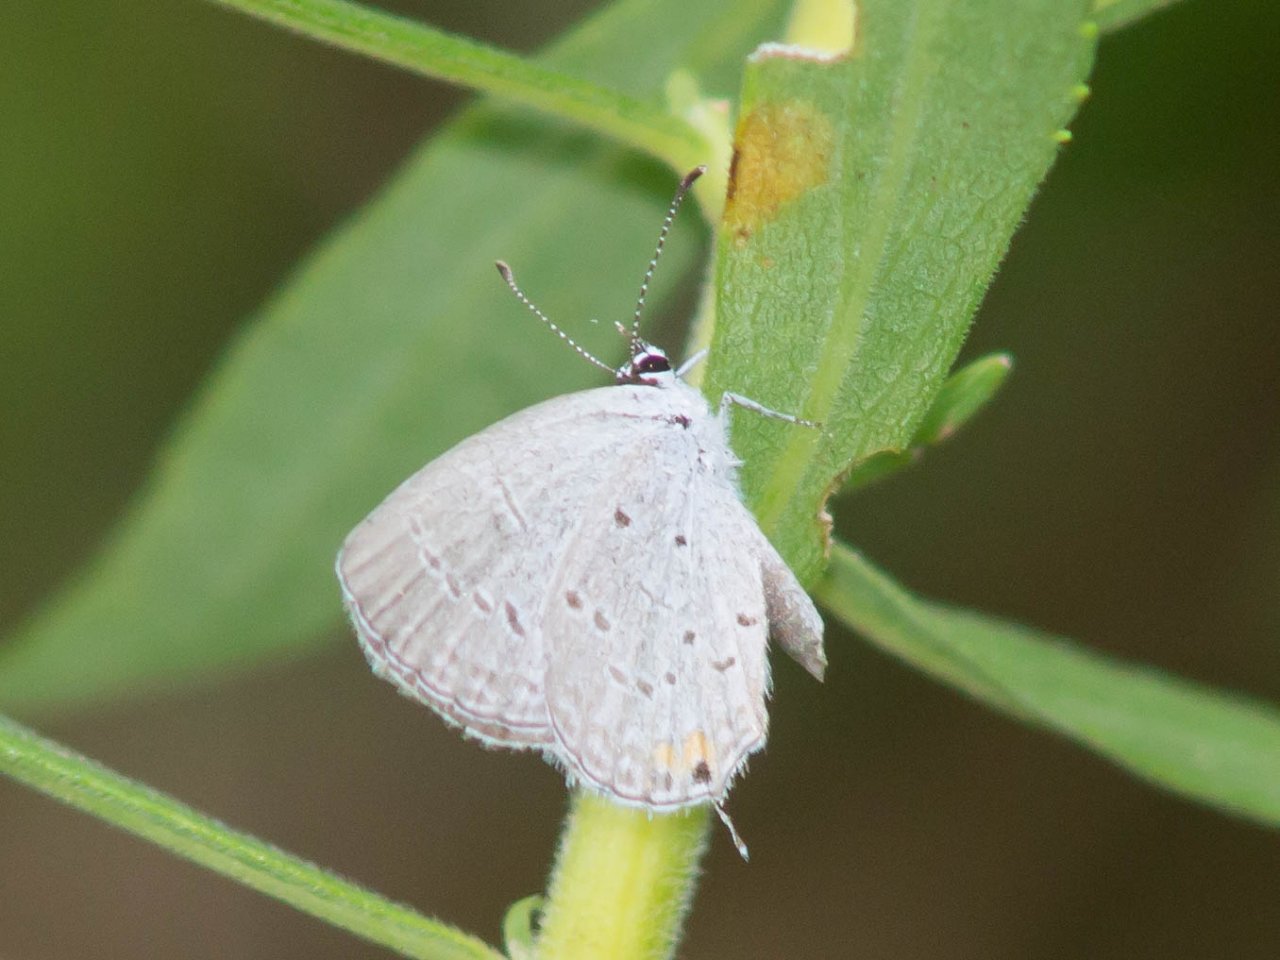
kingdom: Animalia
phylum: Arthropoda
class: Insecta
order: Lepidoptera
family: Lycaenidae
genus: Elkalyce
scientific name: Elkalyce comyntas
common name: Eastern Tailed-Blue
